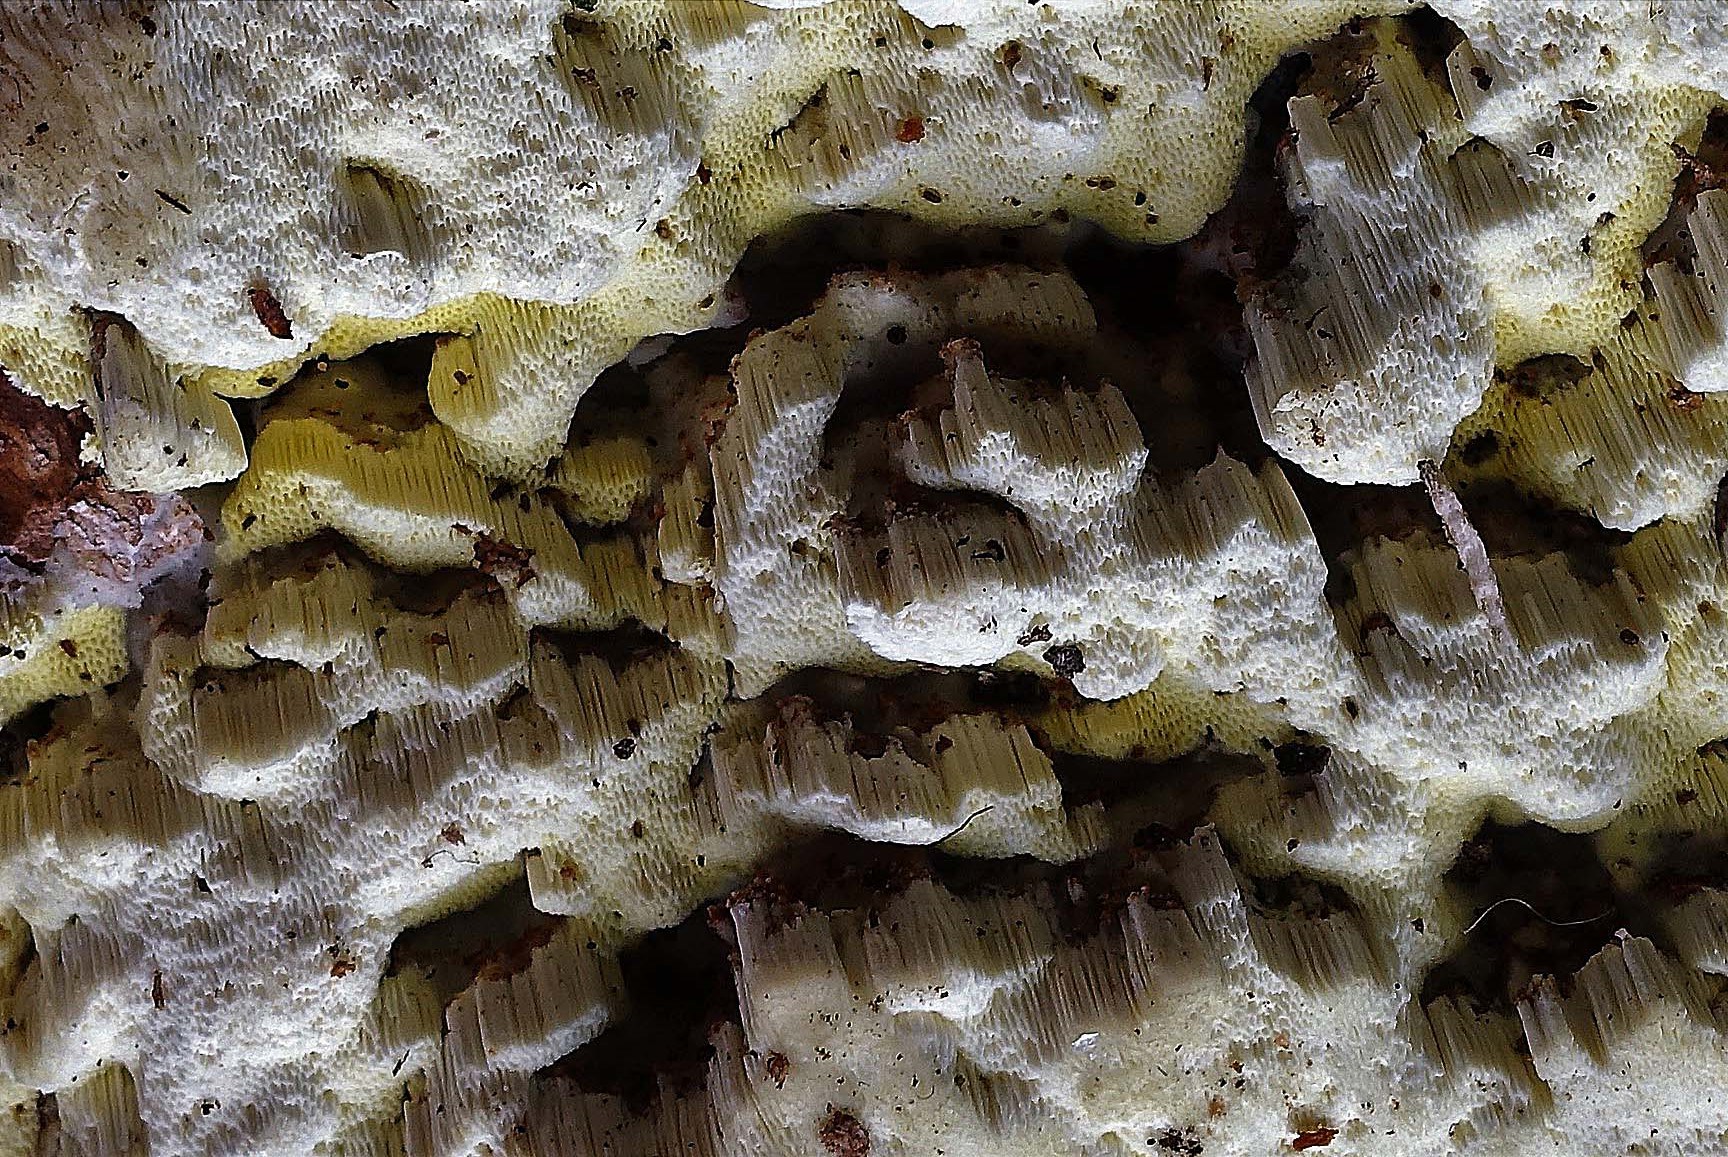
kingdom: Fungi
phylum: Basidiomycota
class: Agaricomycetes
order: Polyporales
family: Fomitopsidaceae
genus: Daedalea
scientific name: Daedalea xantha
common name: gul sejporesvamp
